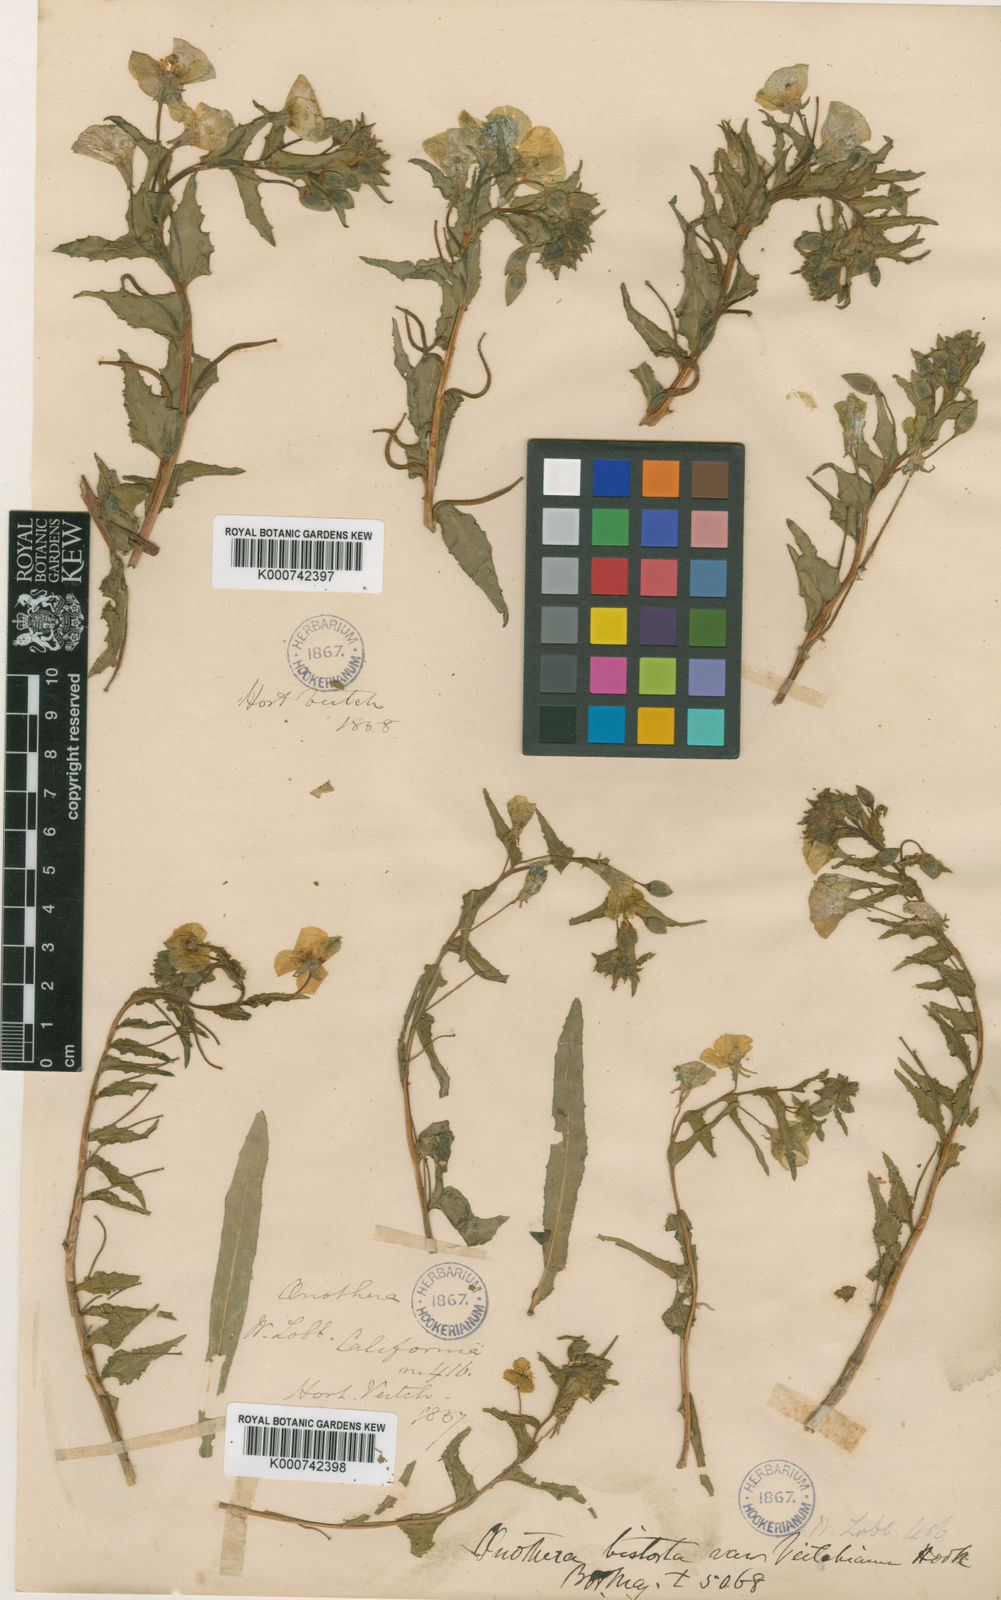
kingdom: Plantae
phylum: Tracheophyta
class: Magnoliopsida
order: Myrtales
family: Onagraceae
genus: Camissoniopsis
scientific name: Camissoniopsis bistorta
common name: Southern suncup
